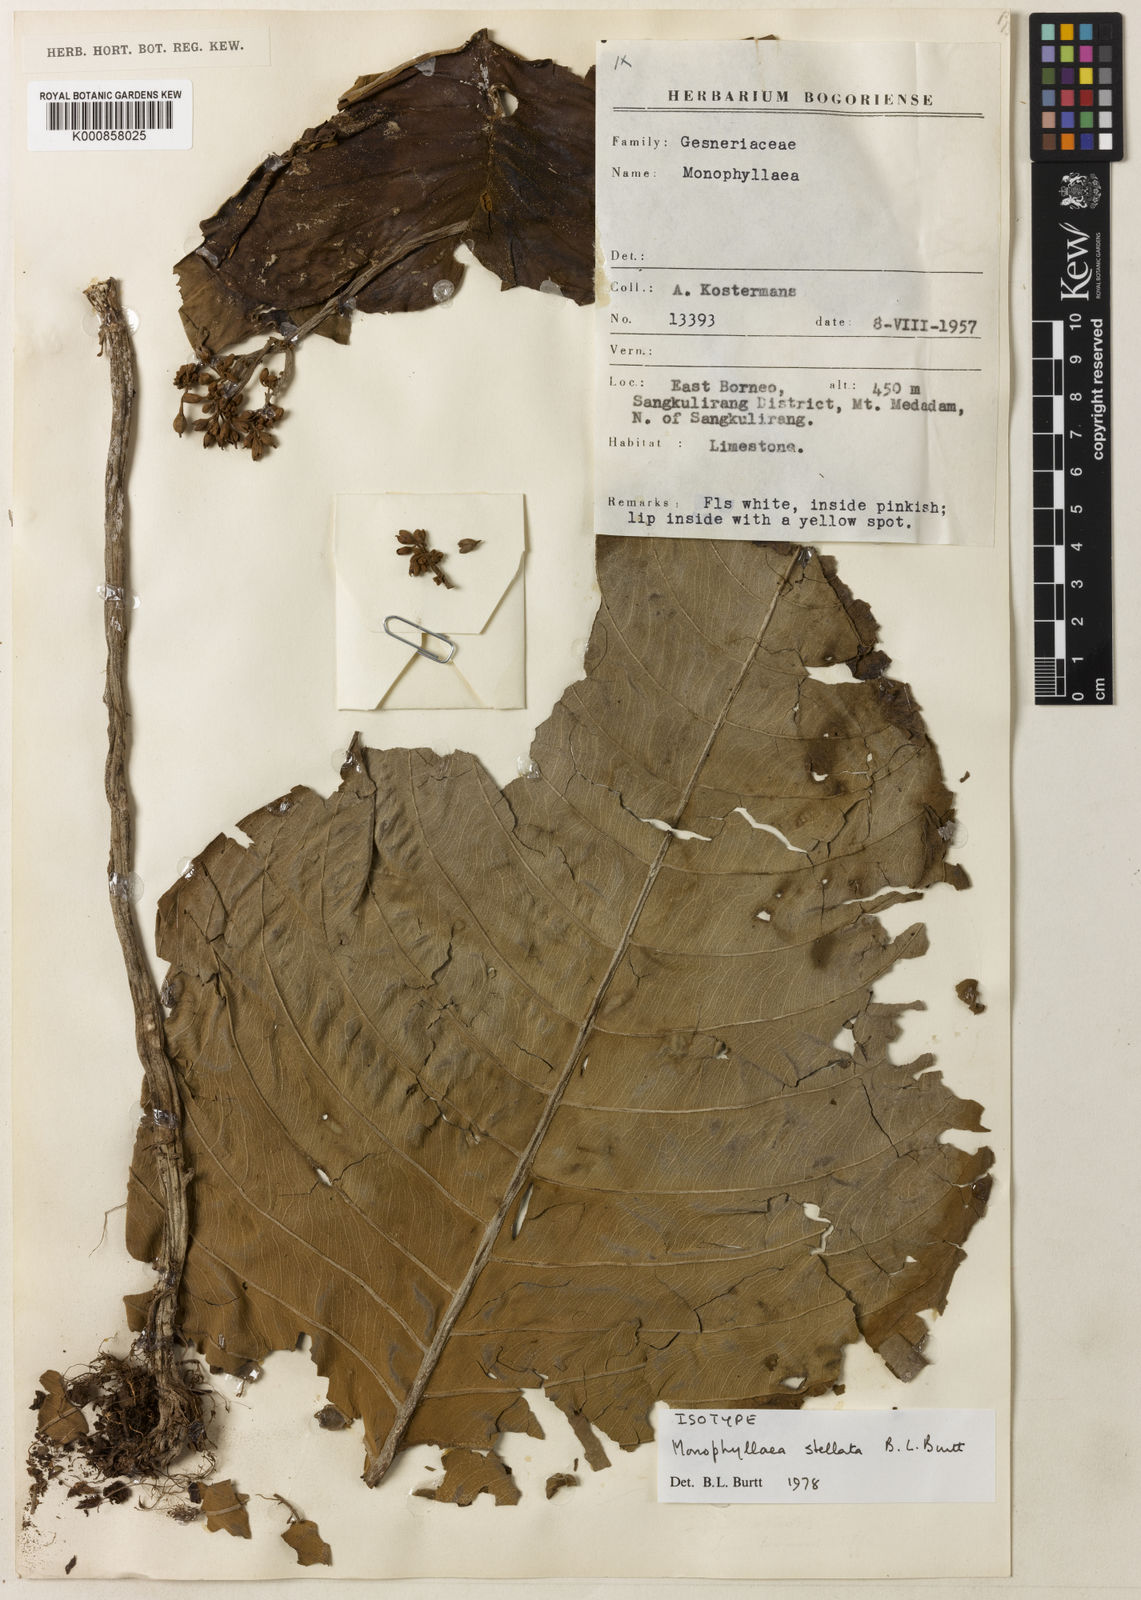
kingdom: Plantae
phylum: Tracheophyta
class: Magnoliopsida
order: Lamiales
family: Gesneriaceae
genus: Monophyllaea
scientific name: Monophyllaea stellata
